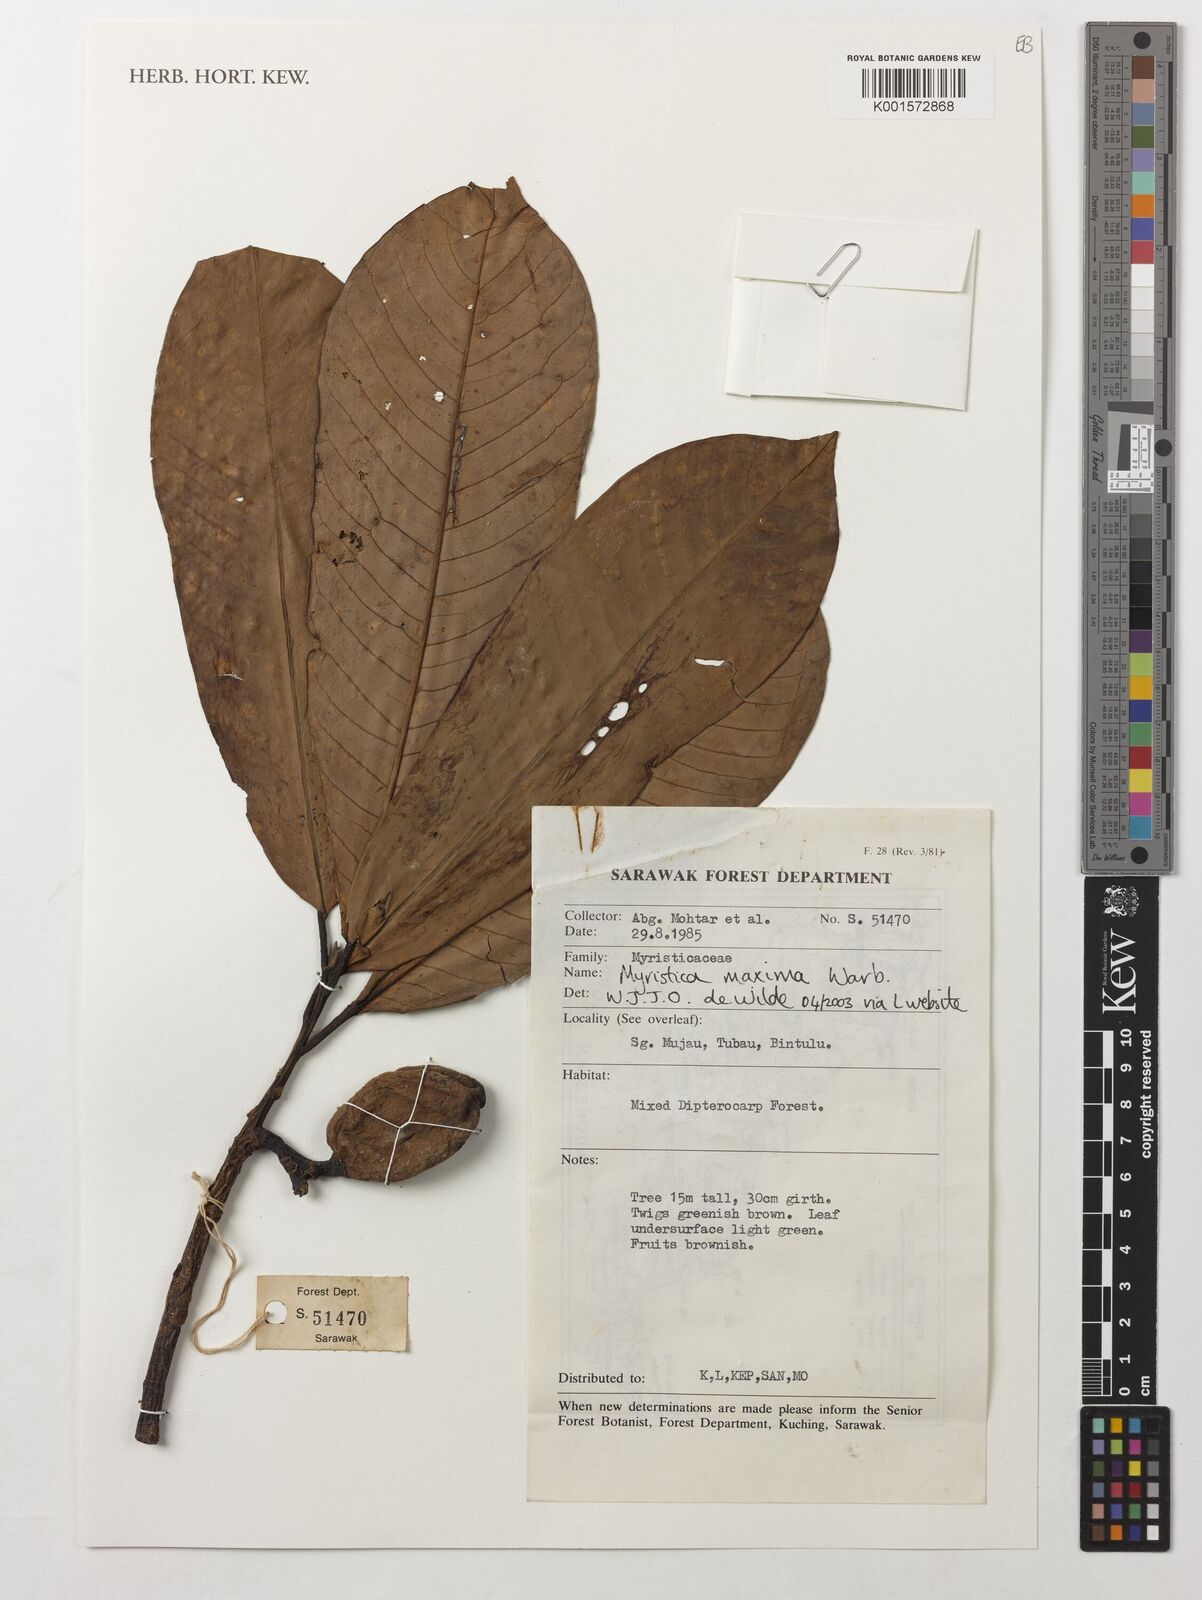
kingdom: Plantae
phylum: Tracheophyta
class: Magnoliopsida
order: Magnoliales
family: Myristicaceae
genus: Myristica
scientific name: Myristica maxima
